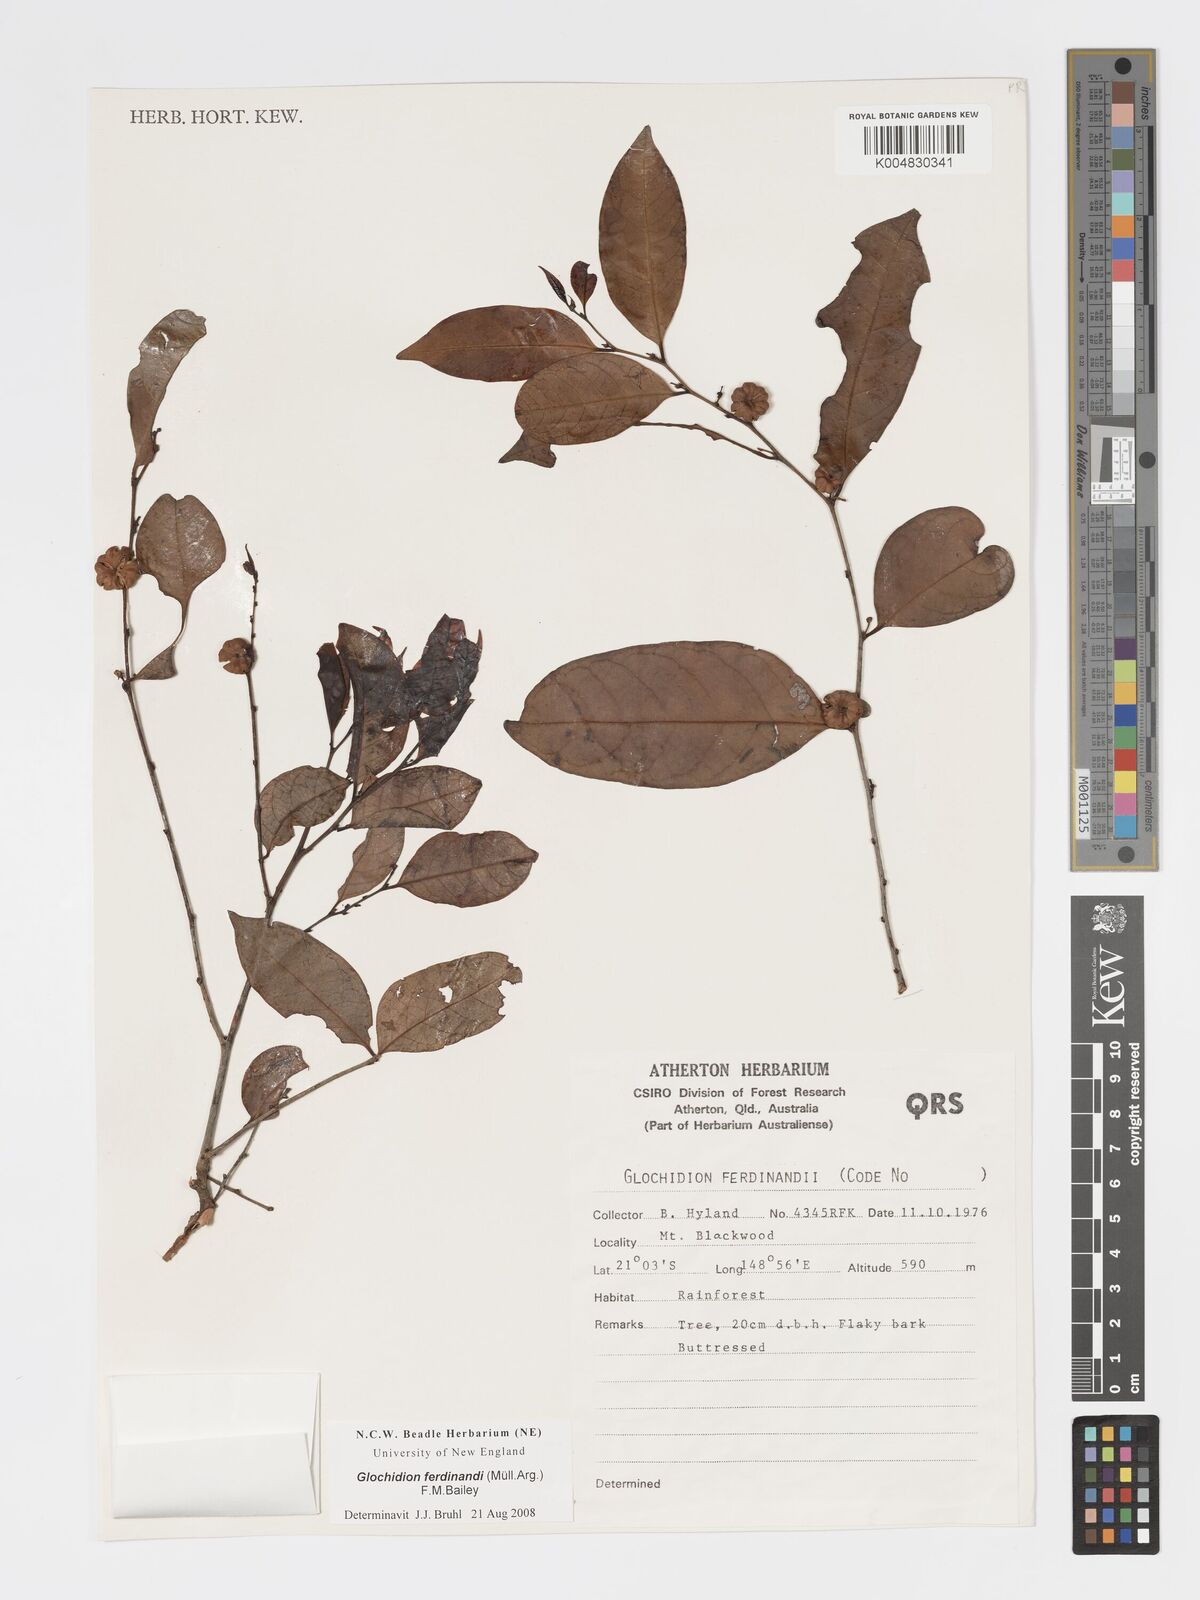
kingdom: Plantae
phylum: Tracheophyta
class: Magnoliopsida
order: Malpighiales
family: Phyllanthaceae
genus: Glochidion
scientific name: Glochidion ferdinandi
